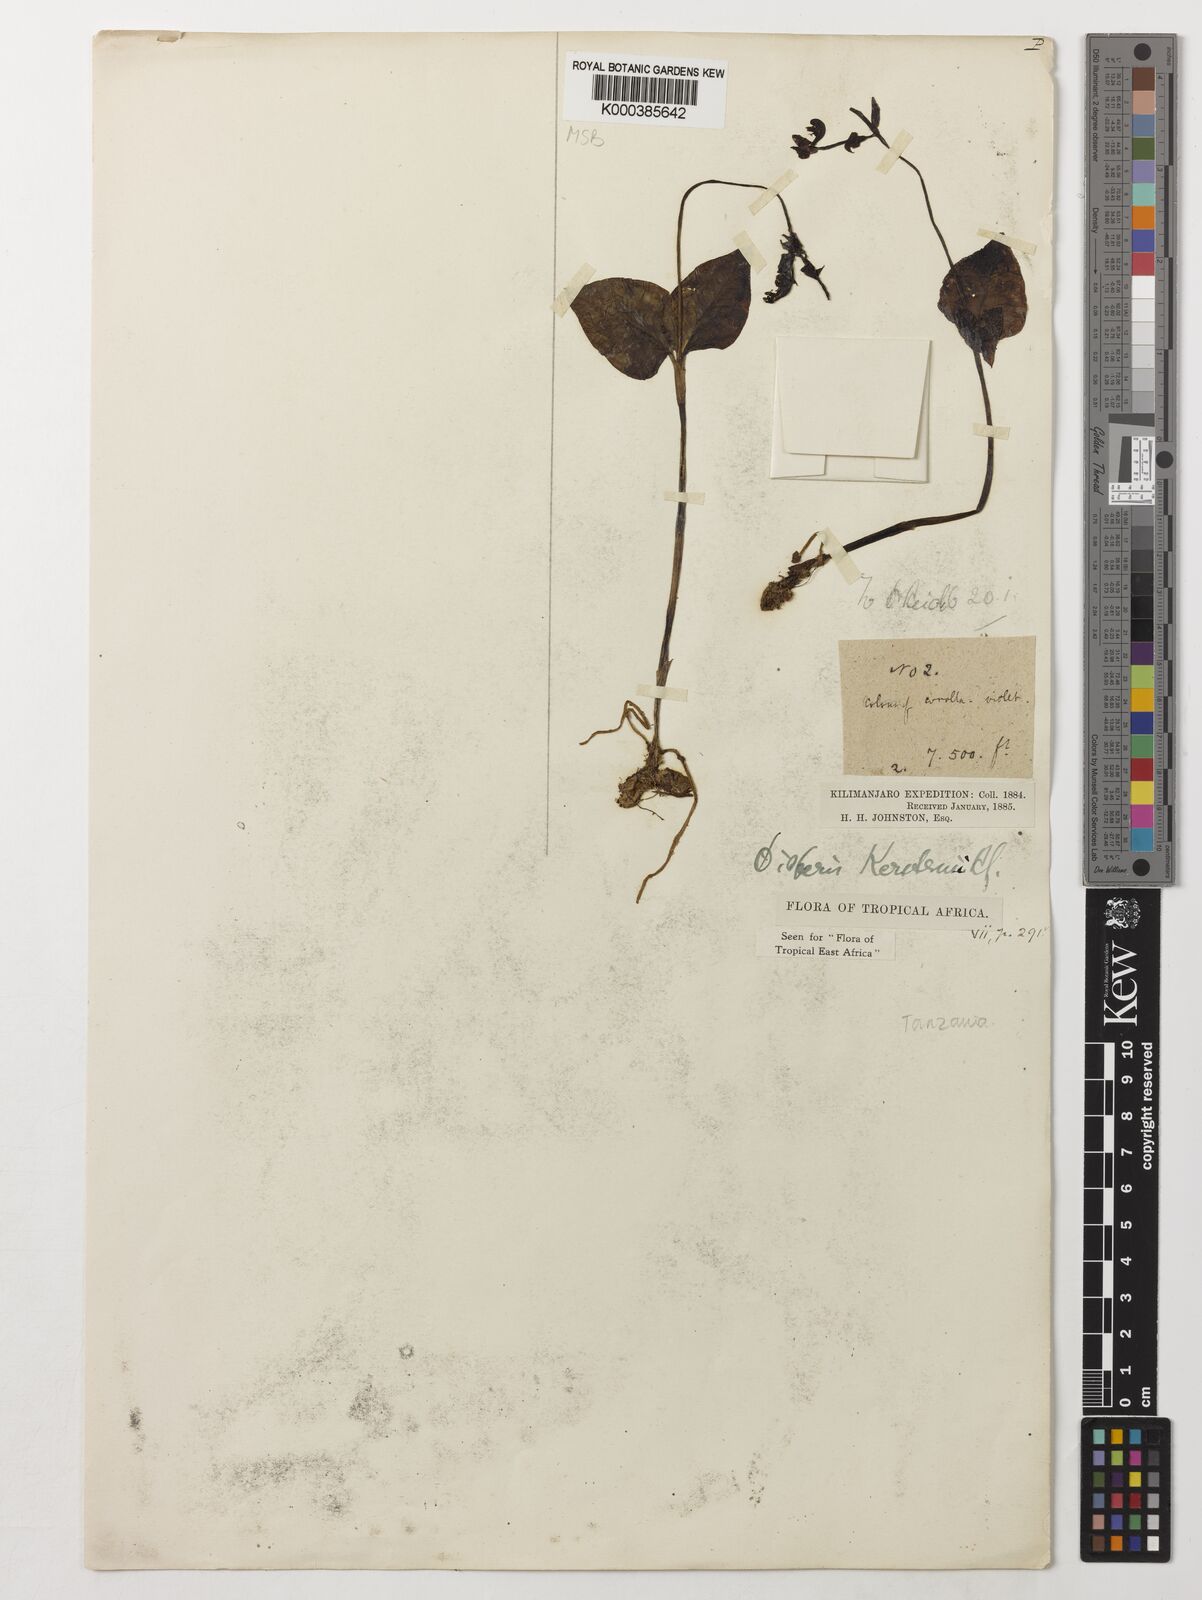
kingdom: Plantae
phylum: Tracheophyta
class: Liliopsida
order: Asparagales
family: Orchidaceae
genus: Disperis
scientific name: Disperis kerstenii
